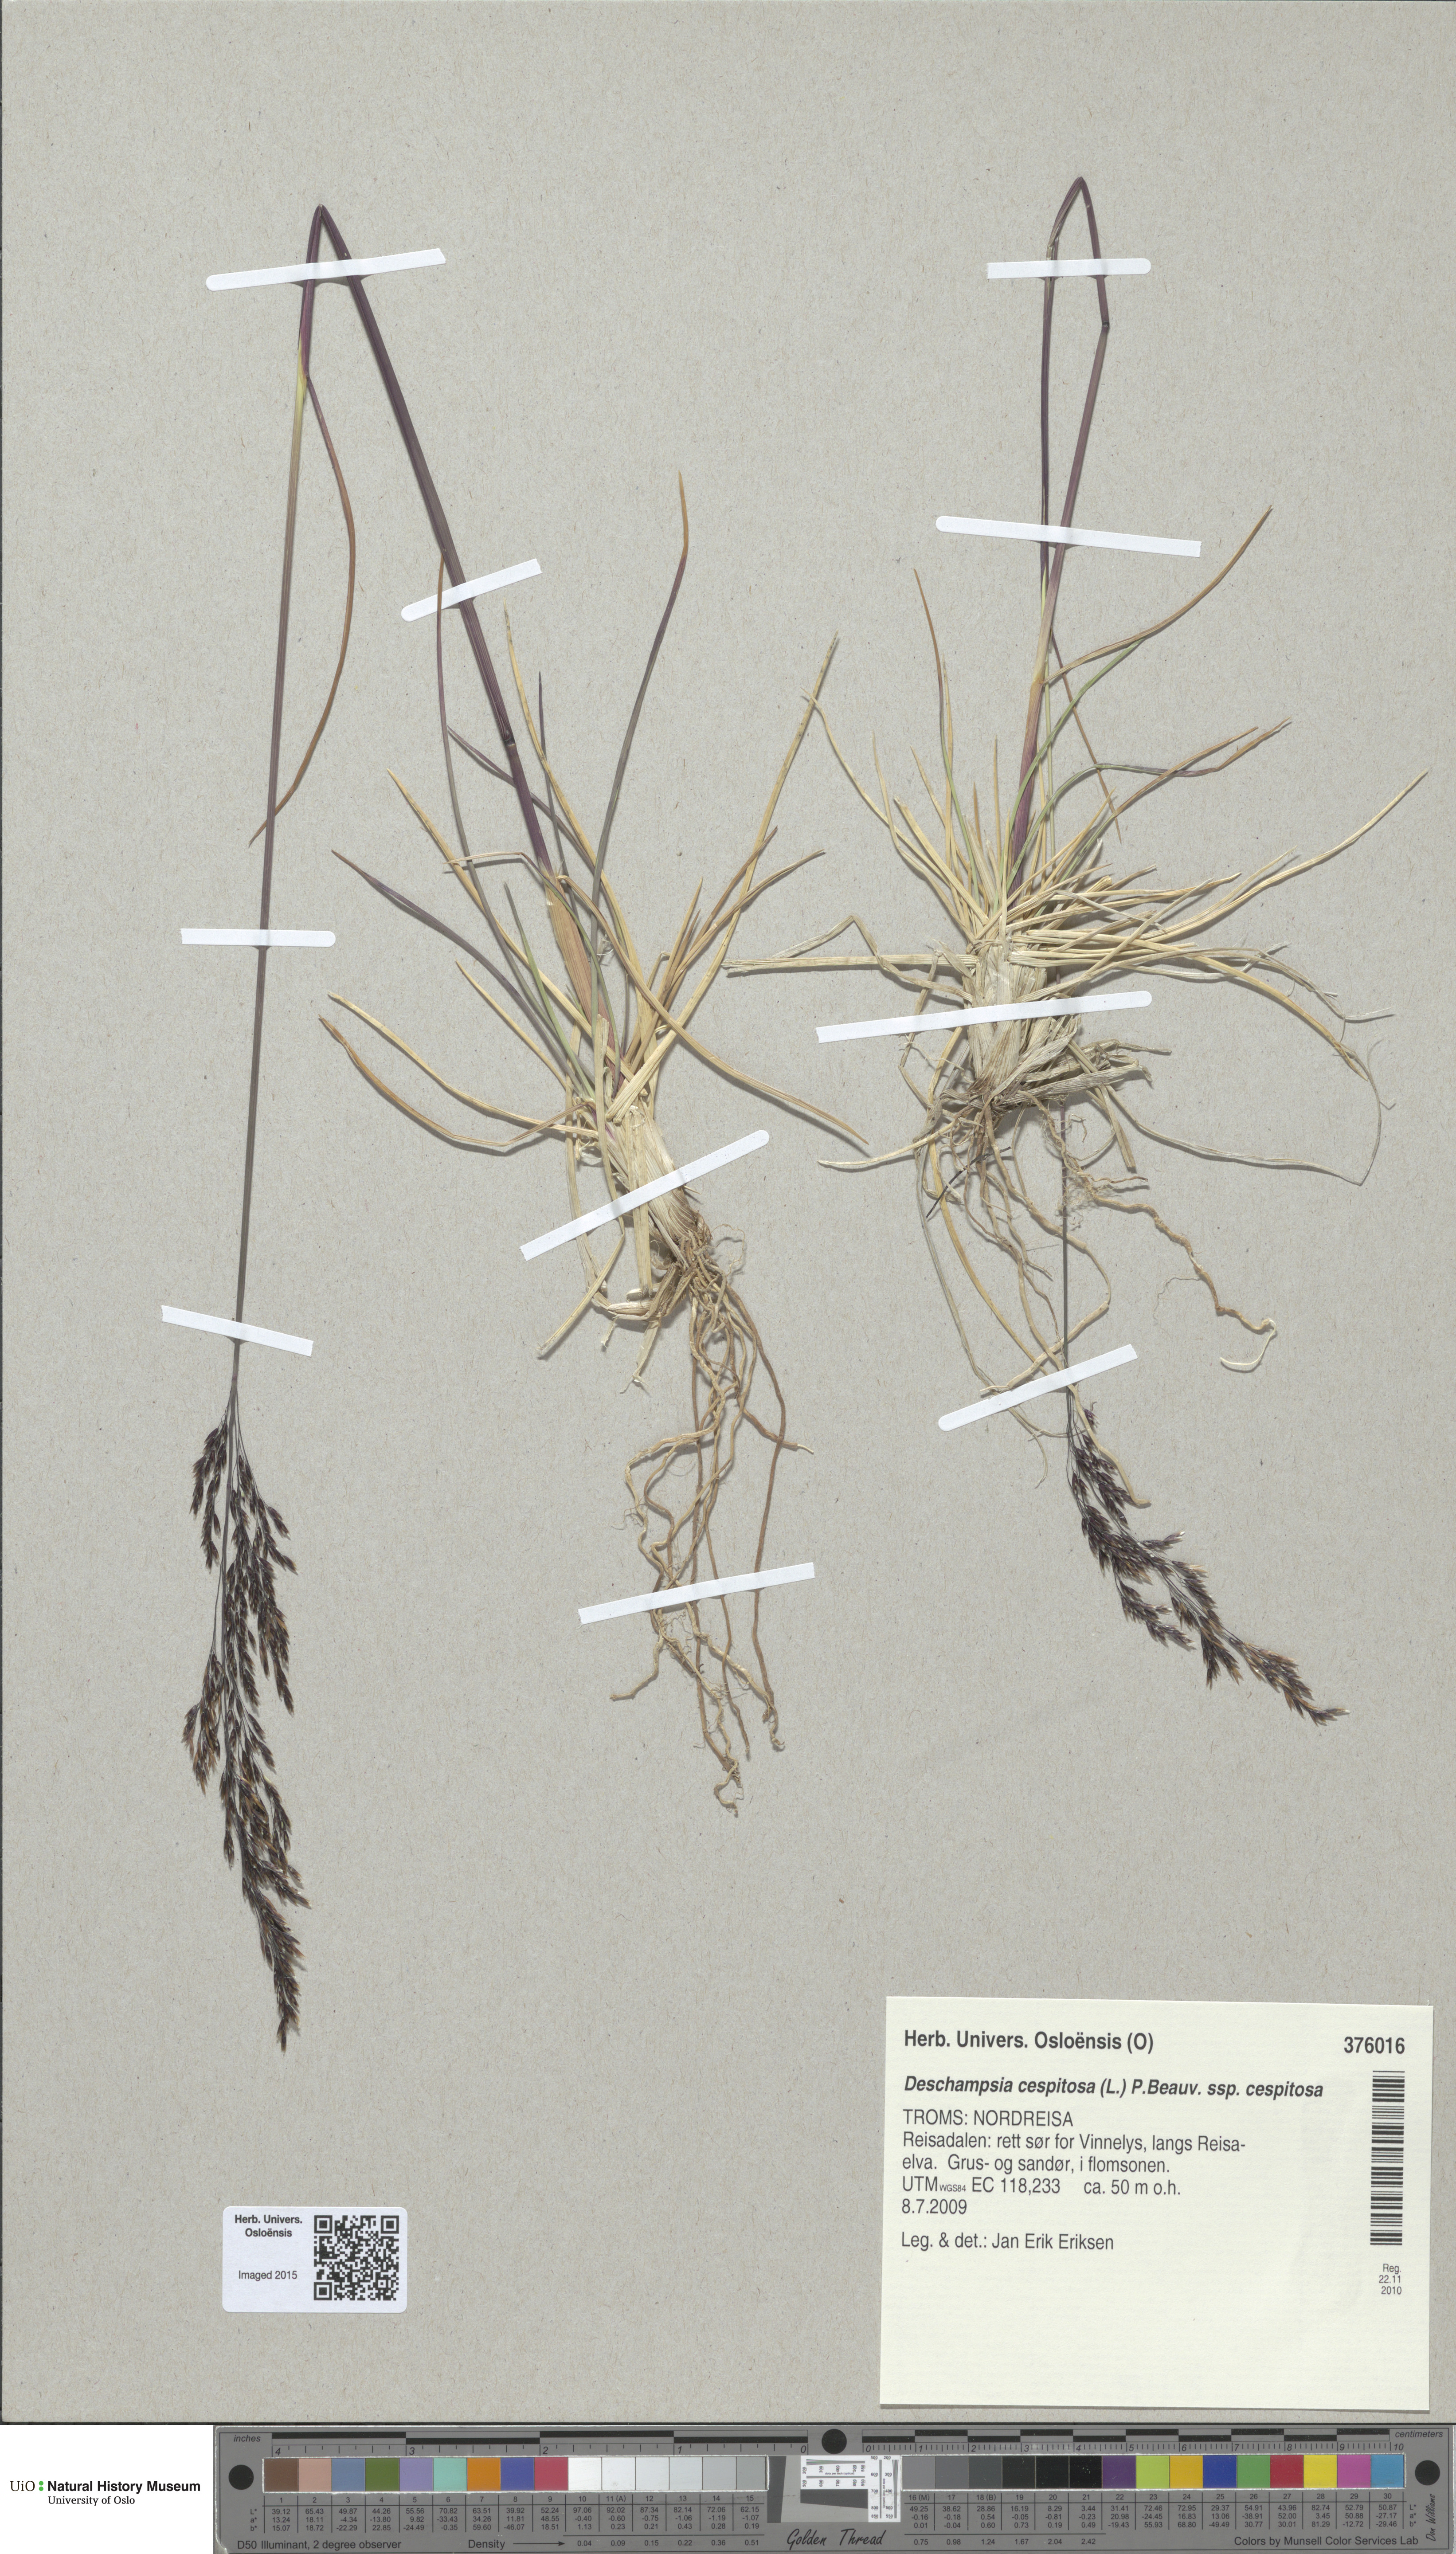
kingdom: Plantae
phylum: Tracheophyta
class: Liliopsida
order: Poales
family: Poaceae
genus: Deschampsia
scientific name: Deschampsia cespitosa
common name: Tufted hair-grass
